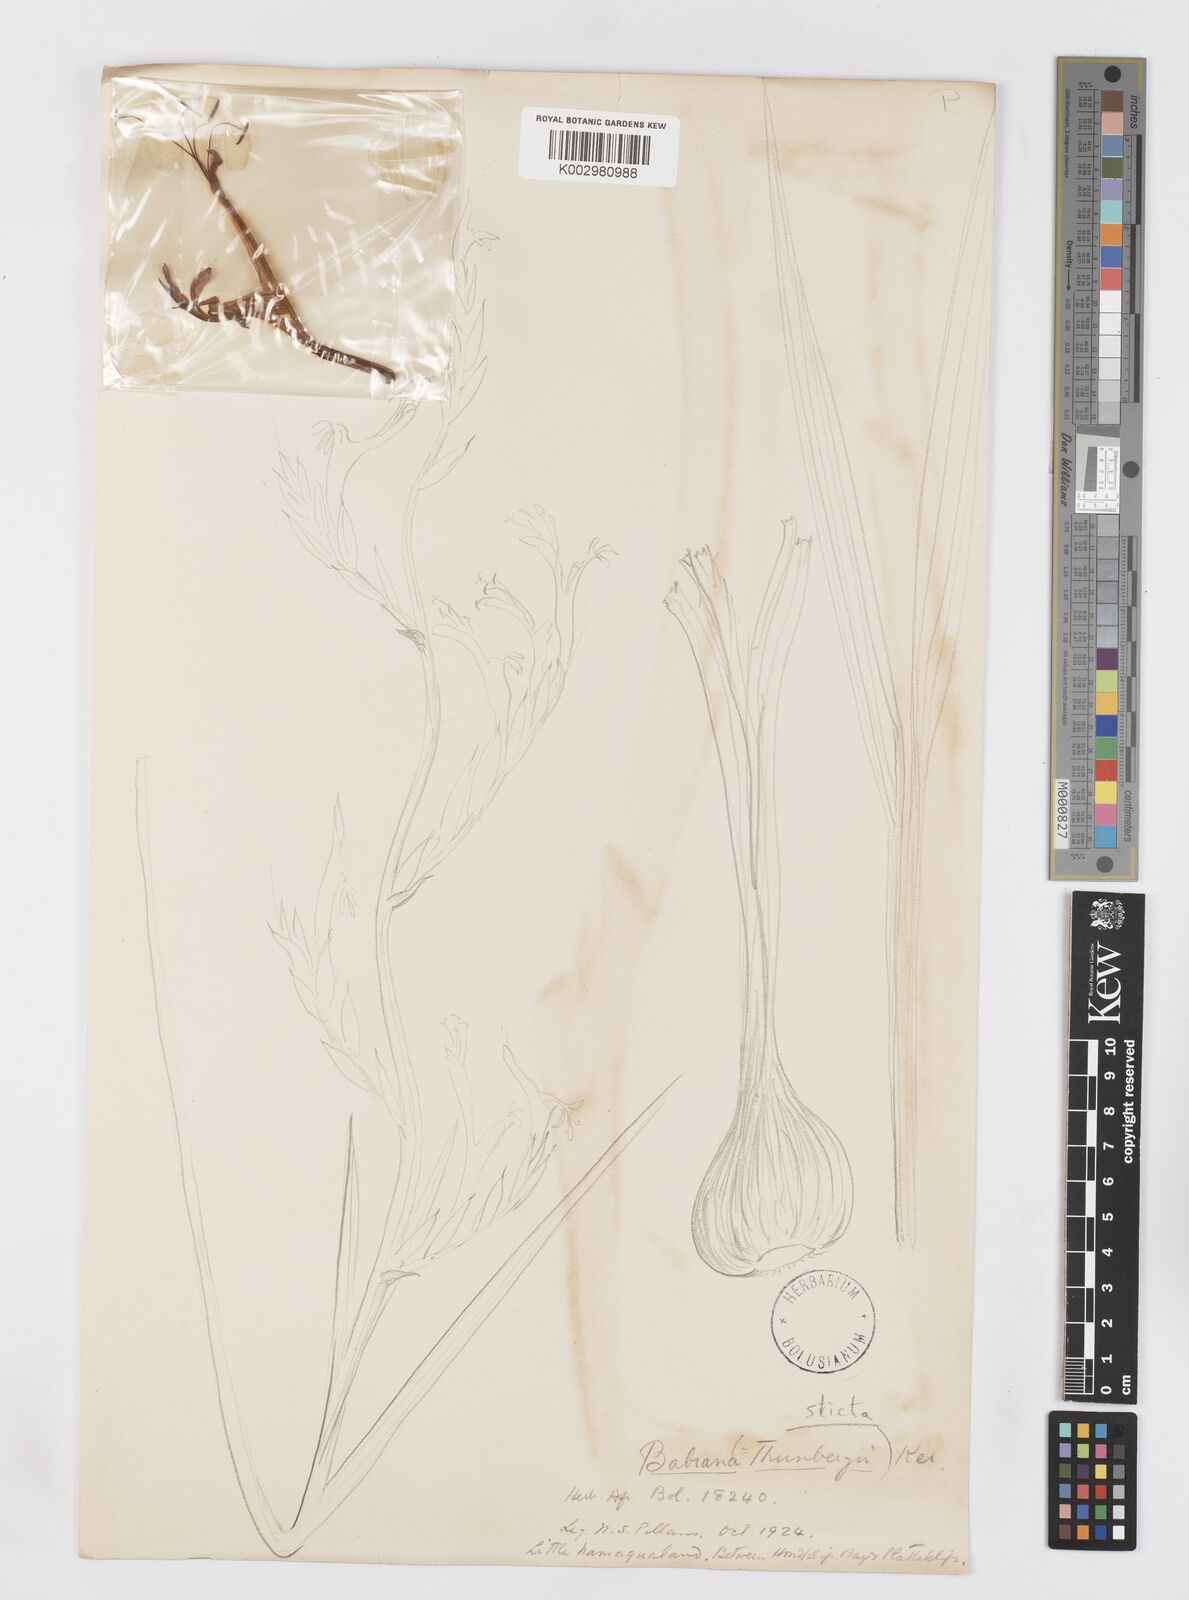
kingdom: Plantae
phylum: Tracheophyta
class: Liliopsida
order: Asparagales
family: Iridaceae
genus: Babiana
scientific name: Babiana
